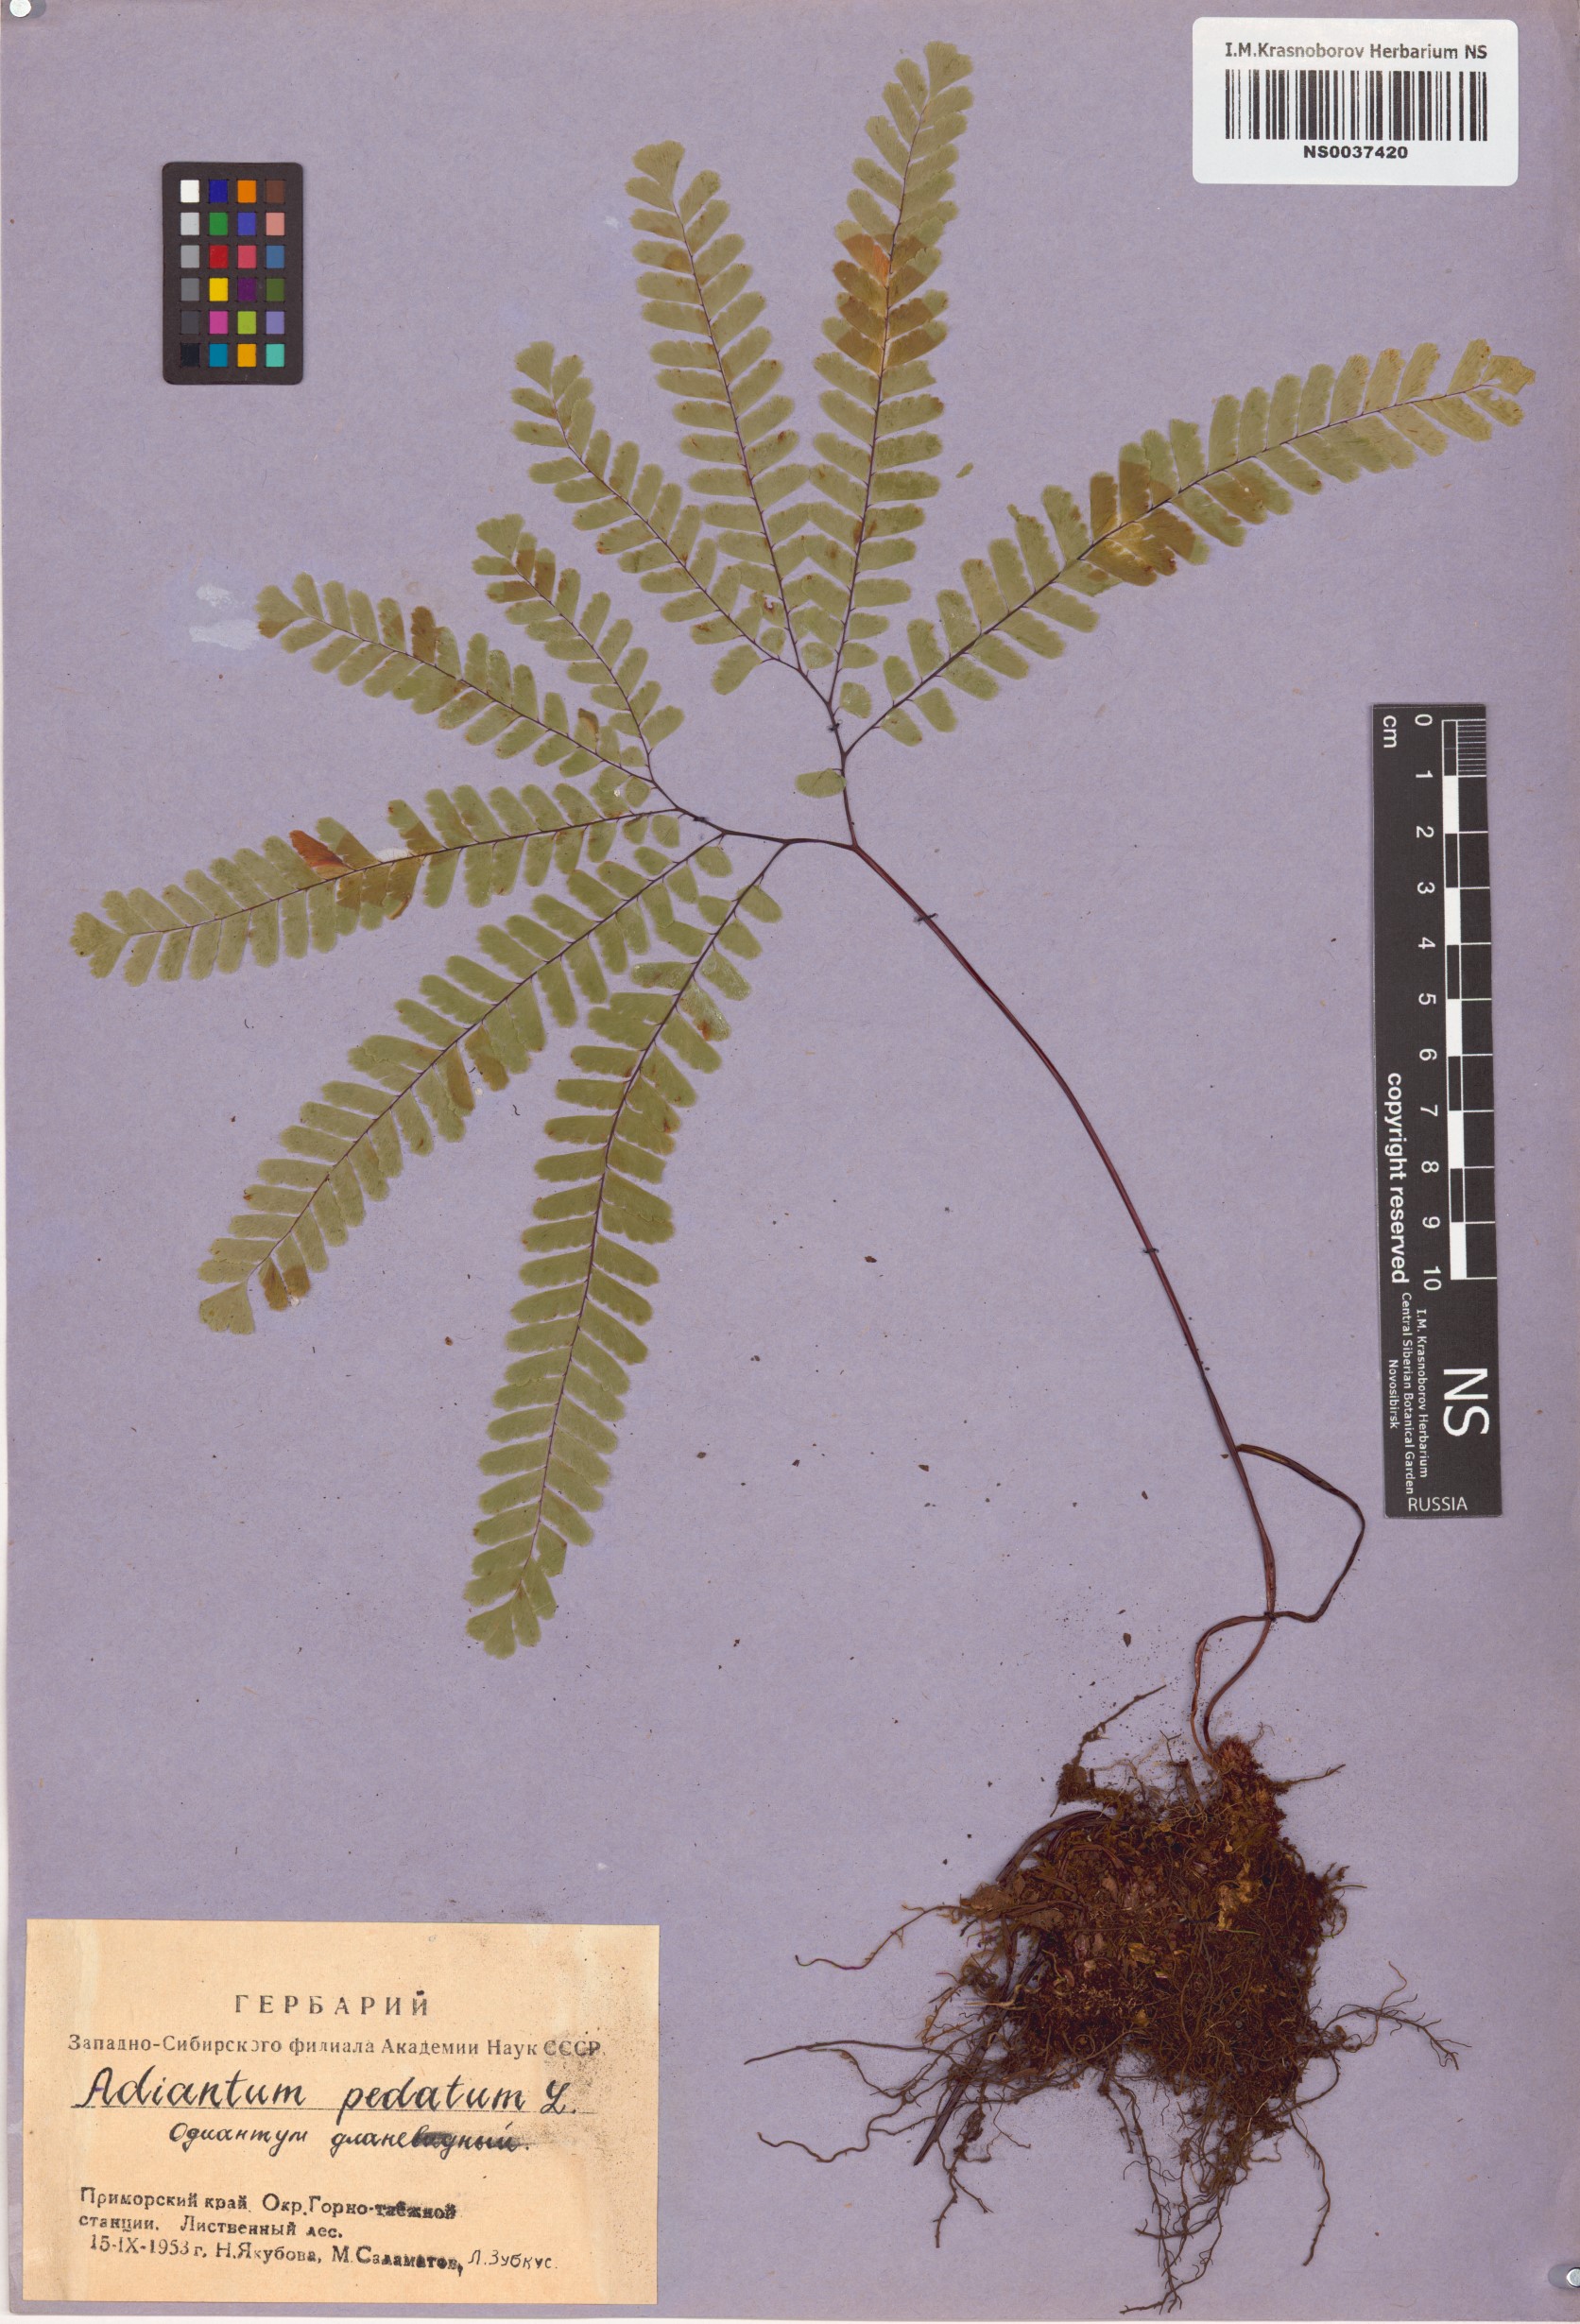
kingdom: Plantae
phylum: Tracheophyta
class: Polypodiopsida
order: Polypodiales
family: Pteridaceae
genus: Adiantum
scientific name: Adiantum pedatum
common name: Five-finger fern
